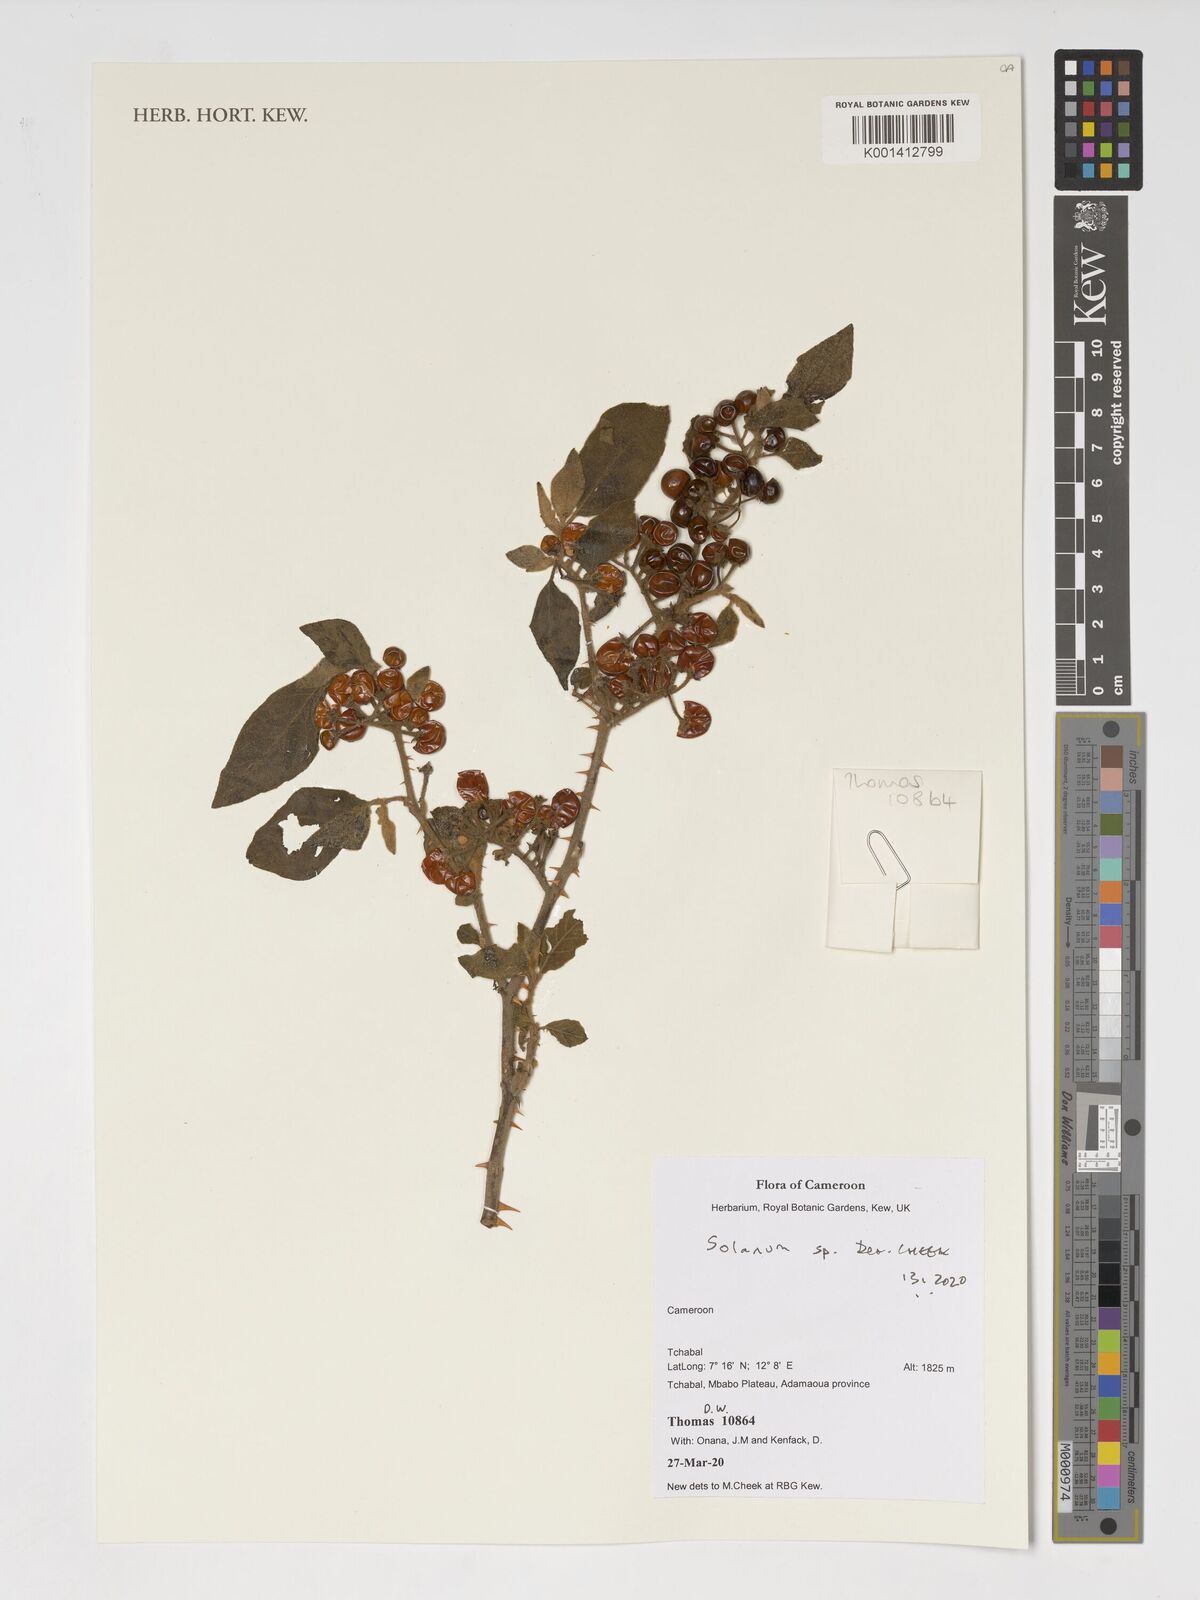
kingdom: Plantae
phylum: Tracheophyta
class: Magnoliopsida
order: Solanales
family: Solanaceae
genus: Solanum
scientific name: Solanum
